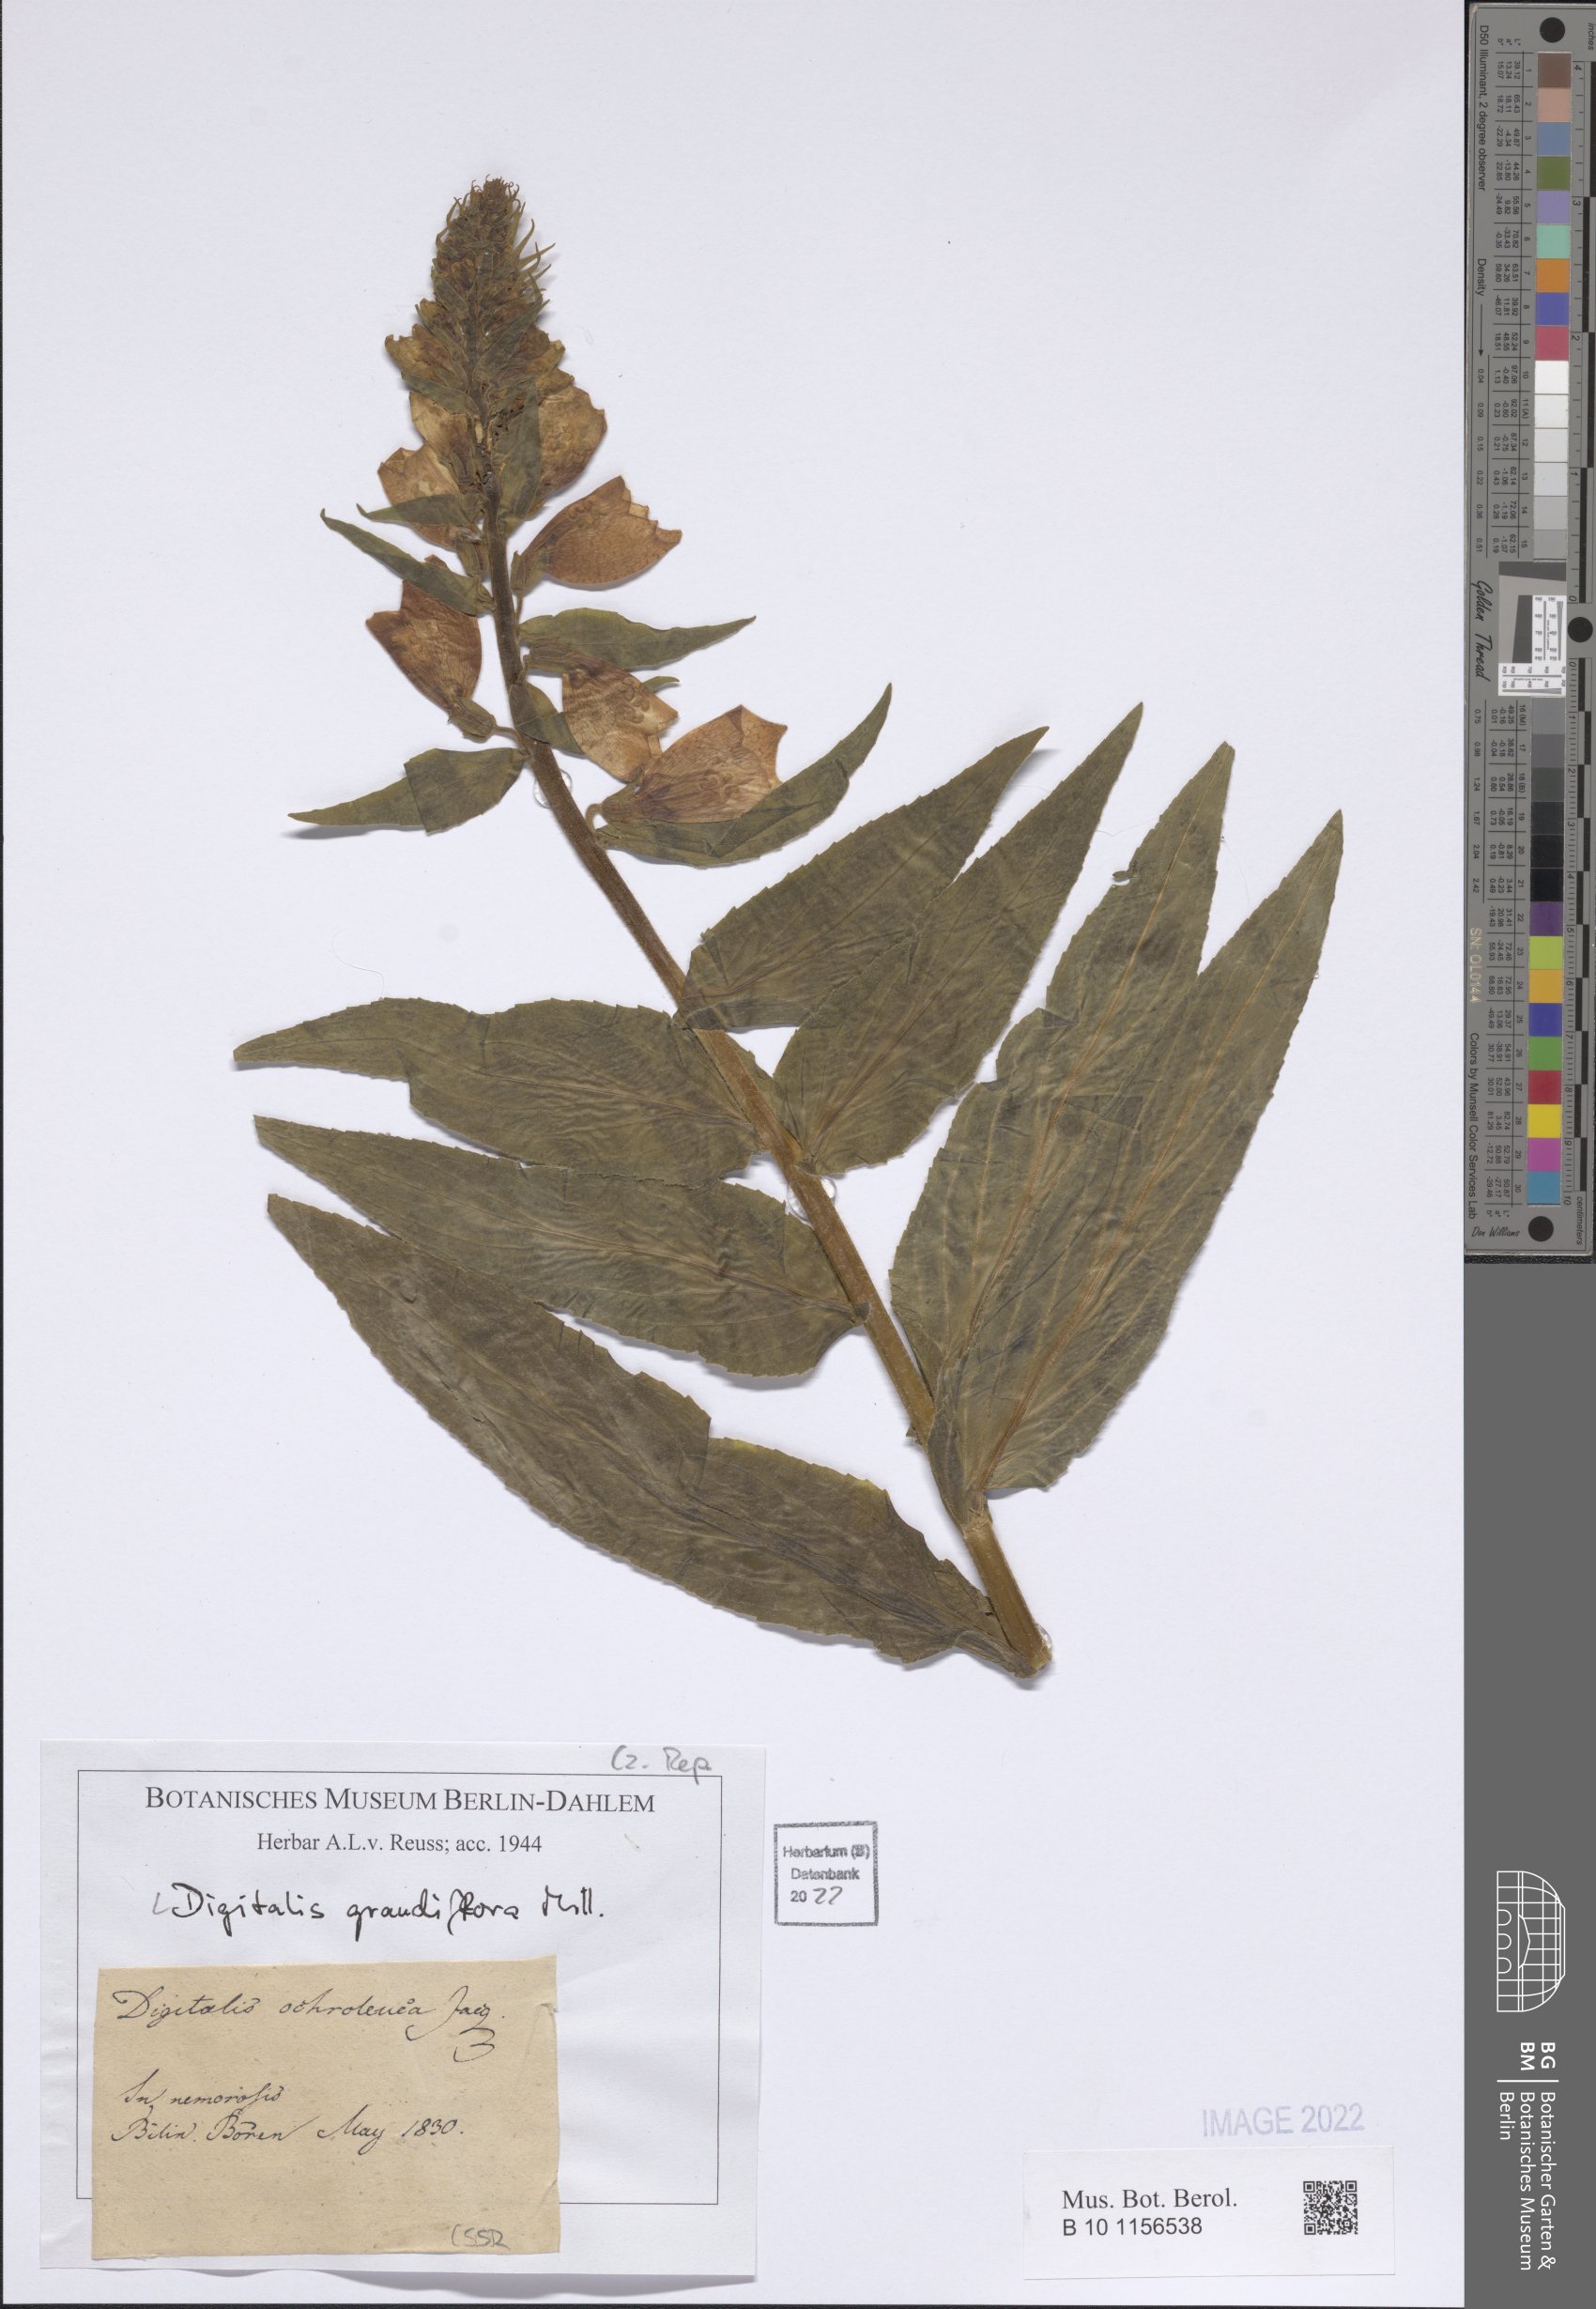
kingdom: Plantae
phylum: Tracheophyta
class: Magnoliopsida
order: Lamiales
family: Plantaginaceae
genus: Digitalis
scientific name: Digitalis grandiflora
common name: Yellow foxglove
